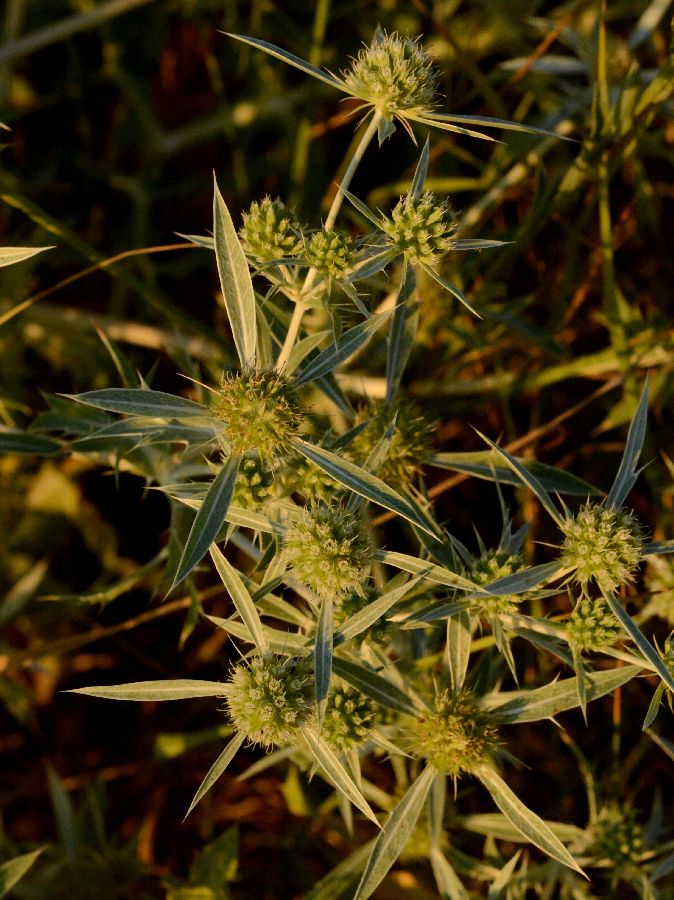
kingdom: Plantae
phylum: Tracheophyta
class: Magnoliopsida
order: Apiales
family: Apiaceae
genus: Eryngium
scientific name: Eryngium campestre
